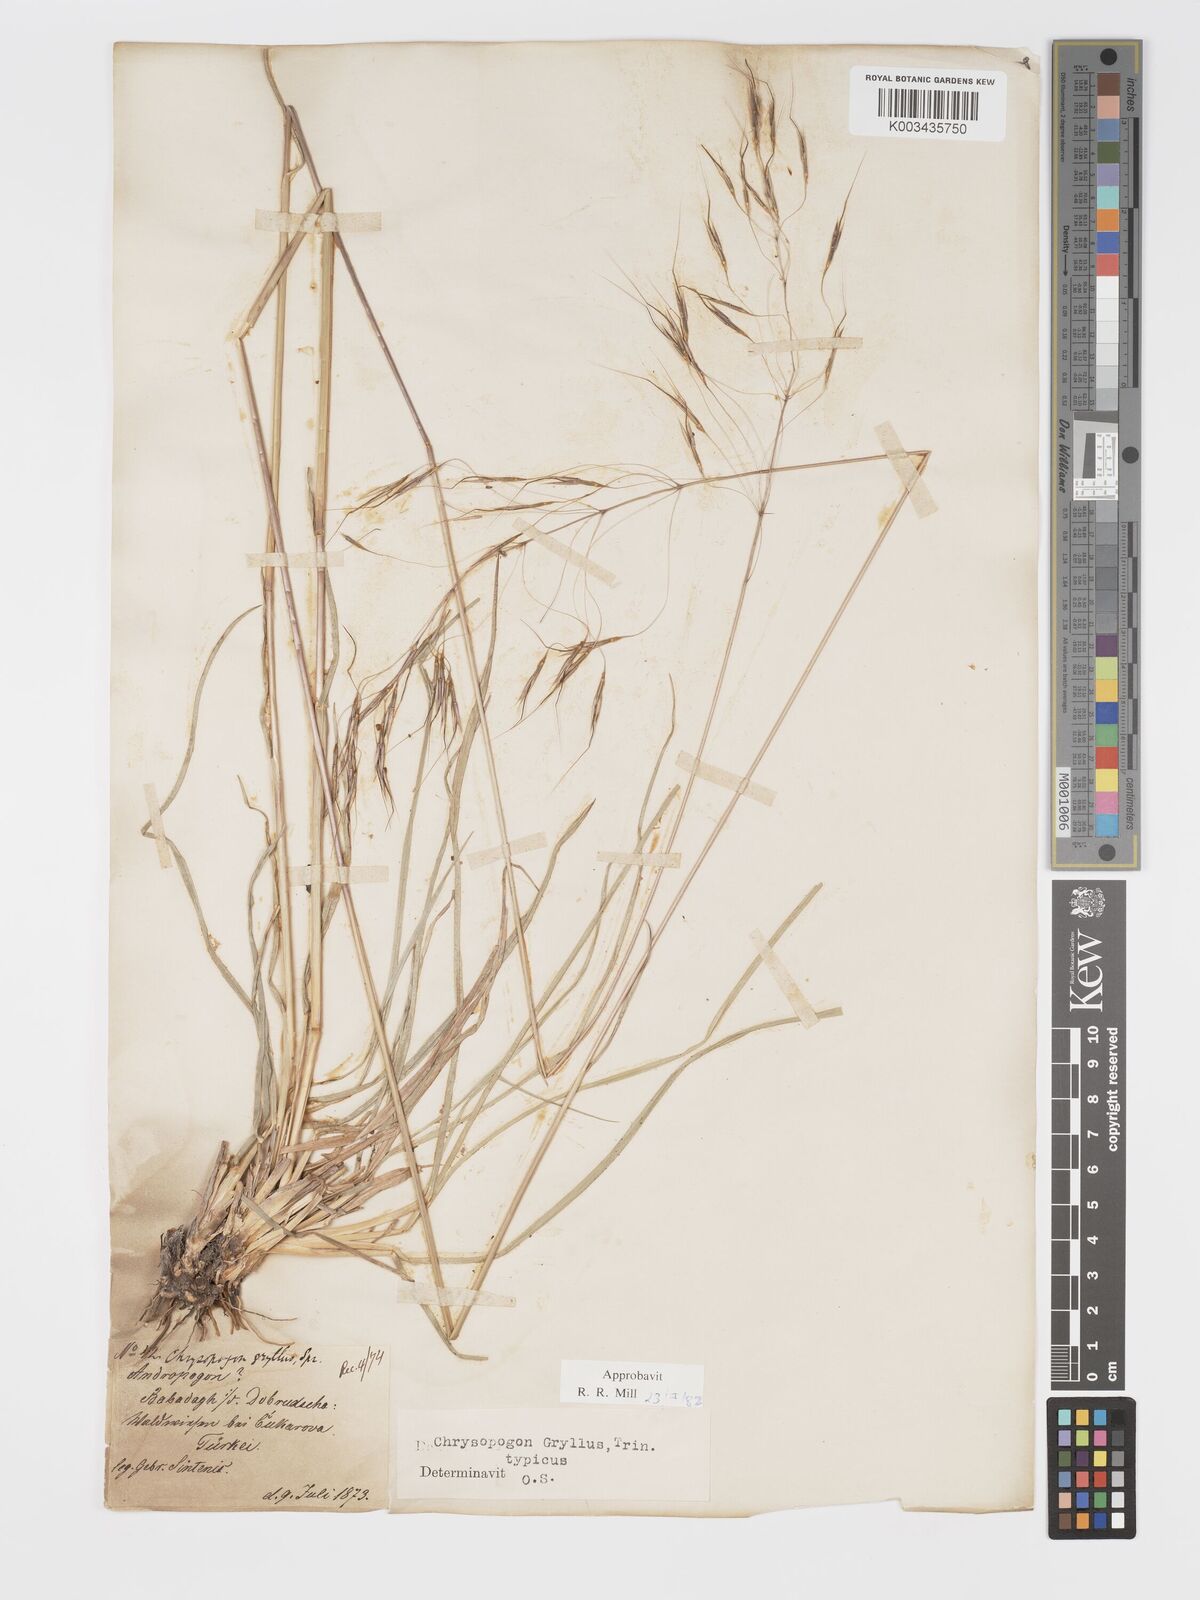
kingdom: Plantae
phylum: Tracheophyta
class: Liliopsida
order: Poales
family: Poaceae
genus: Chrysopogon
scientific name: Chrysopogon gryllus
